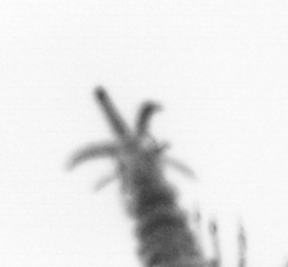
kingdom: Animalia
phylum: Annelida
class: Polychaeta
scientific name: Polychaeta
